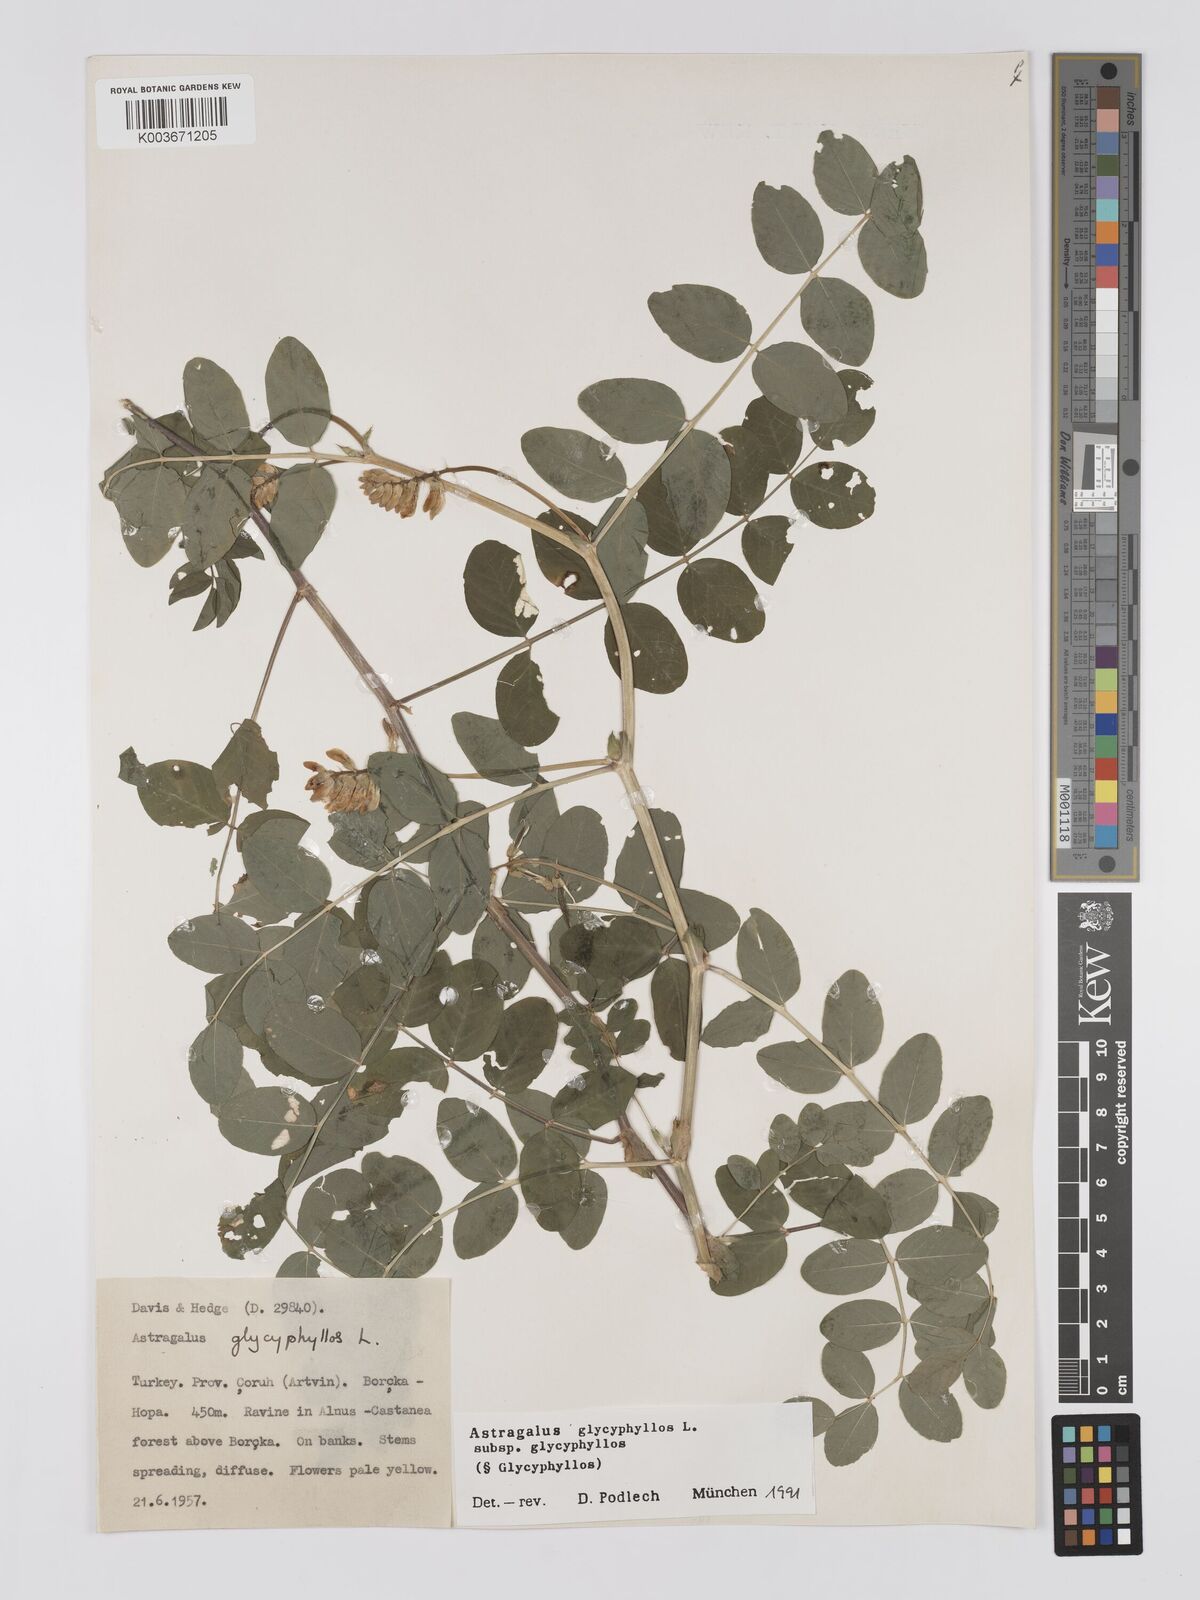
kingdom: Plantae
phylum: Tracheophyta
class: Magnoliopsida
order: Fabales
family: Fabaceae
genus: Astragalus
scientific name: Astragalus glycyphyllos
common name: Wild liquorice
